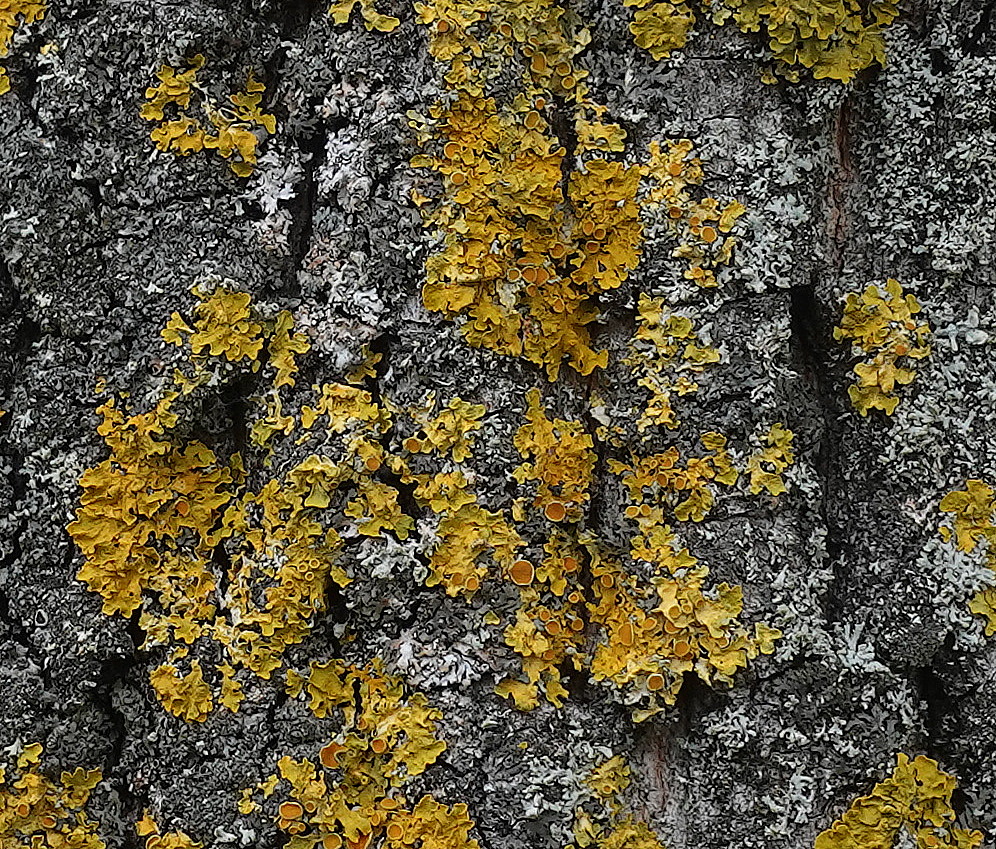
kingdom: Fungi
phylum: Ascomycota
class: Lecanoromycetes
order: Teloschistales
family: Teloschistaceae
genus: Xanthoria
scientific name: Xanthoria parietina
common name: almindelig væggelav
